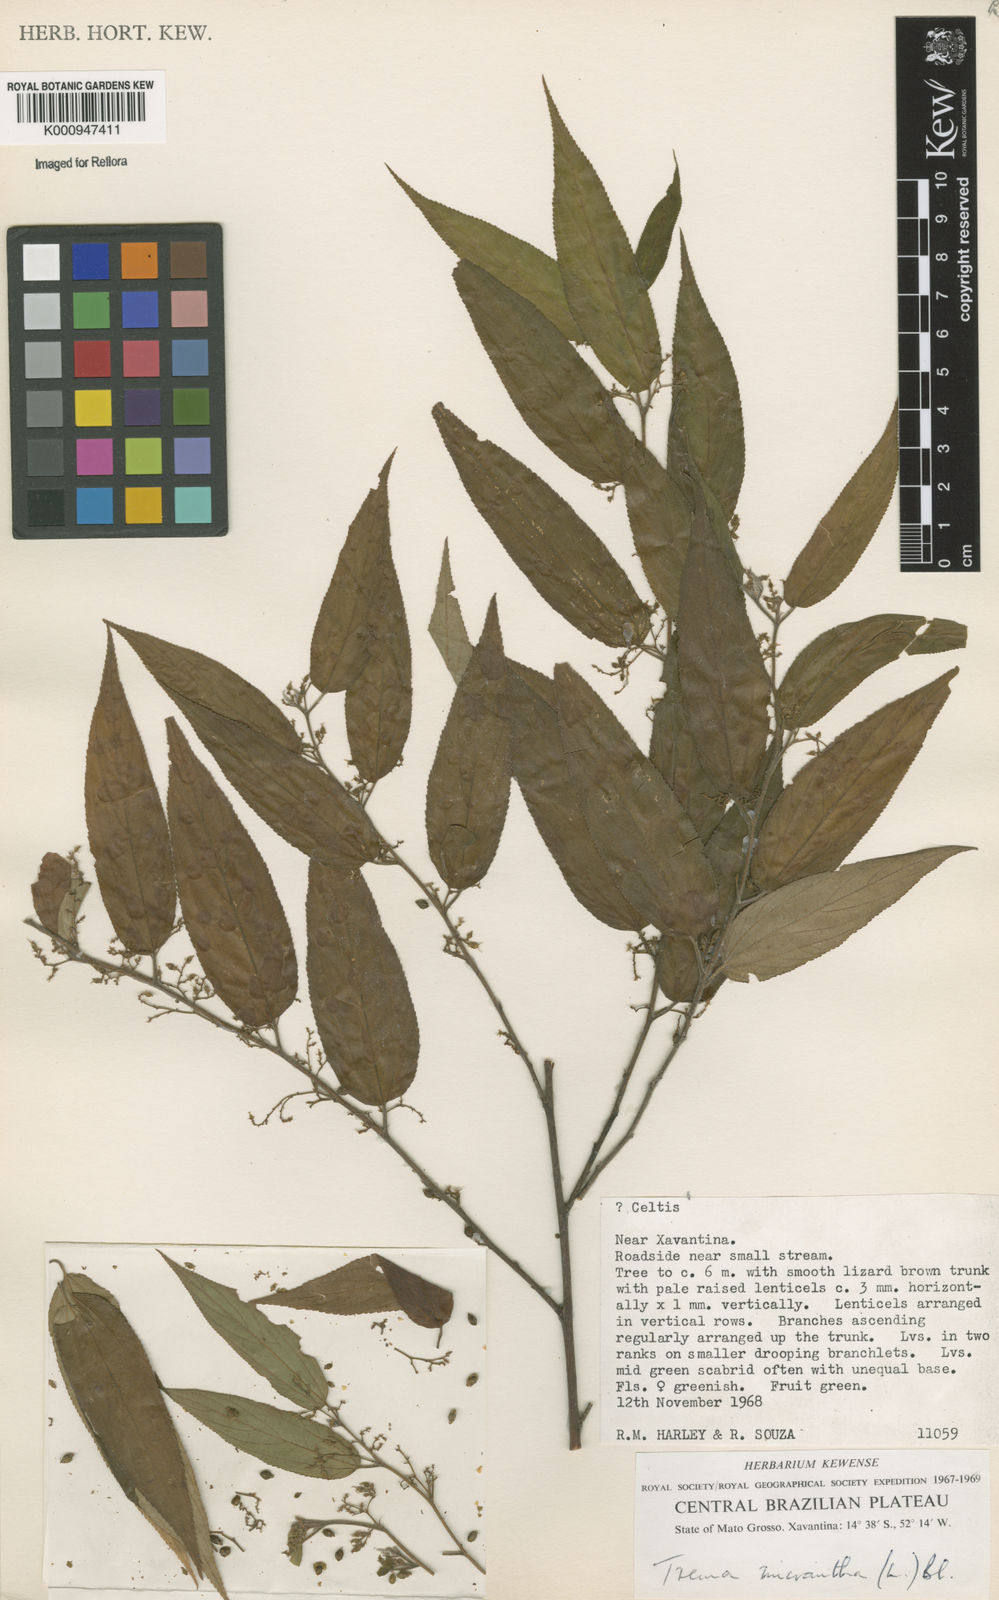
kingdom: Plantae
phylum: Tracheophyta
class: Magnoliopsida
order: Rosales
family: Cannabaceae
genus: Trema
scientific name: Trema micranthum
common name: Jamaican nettletree
